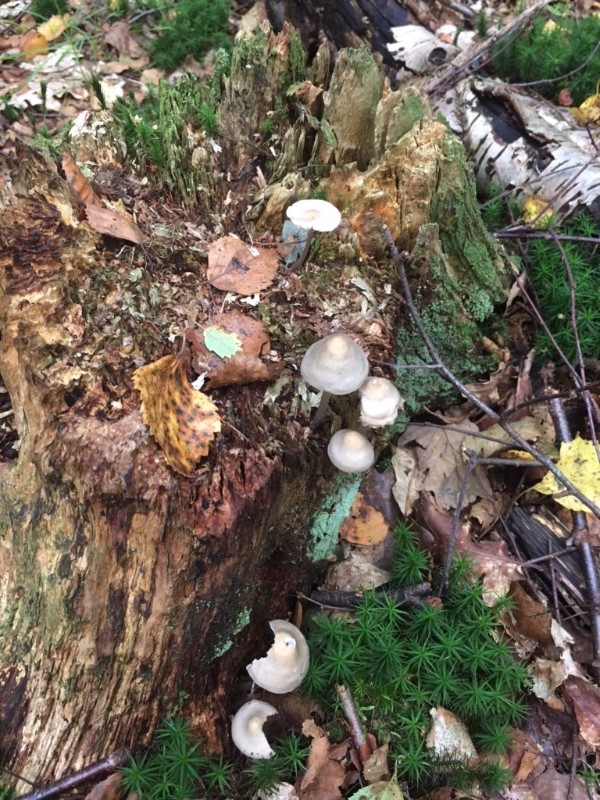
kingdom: Fungi
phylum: Basidiomycota
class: Agaricomycetes
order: Agaricales
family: Mycenaceae
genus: Mycena
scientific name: Mycena galericulata
